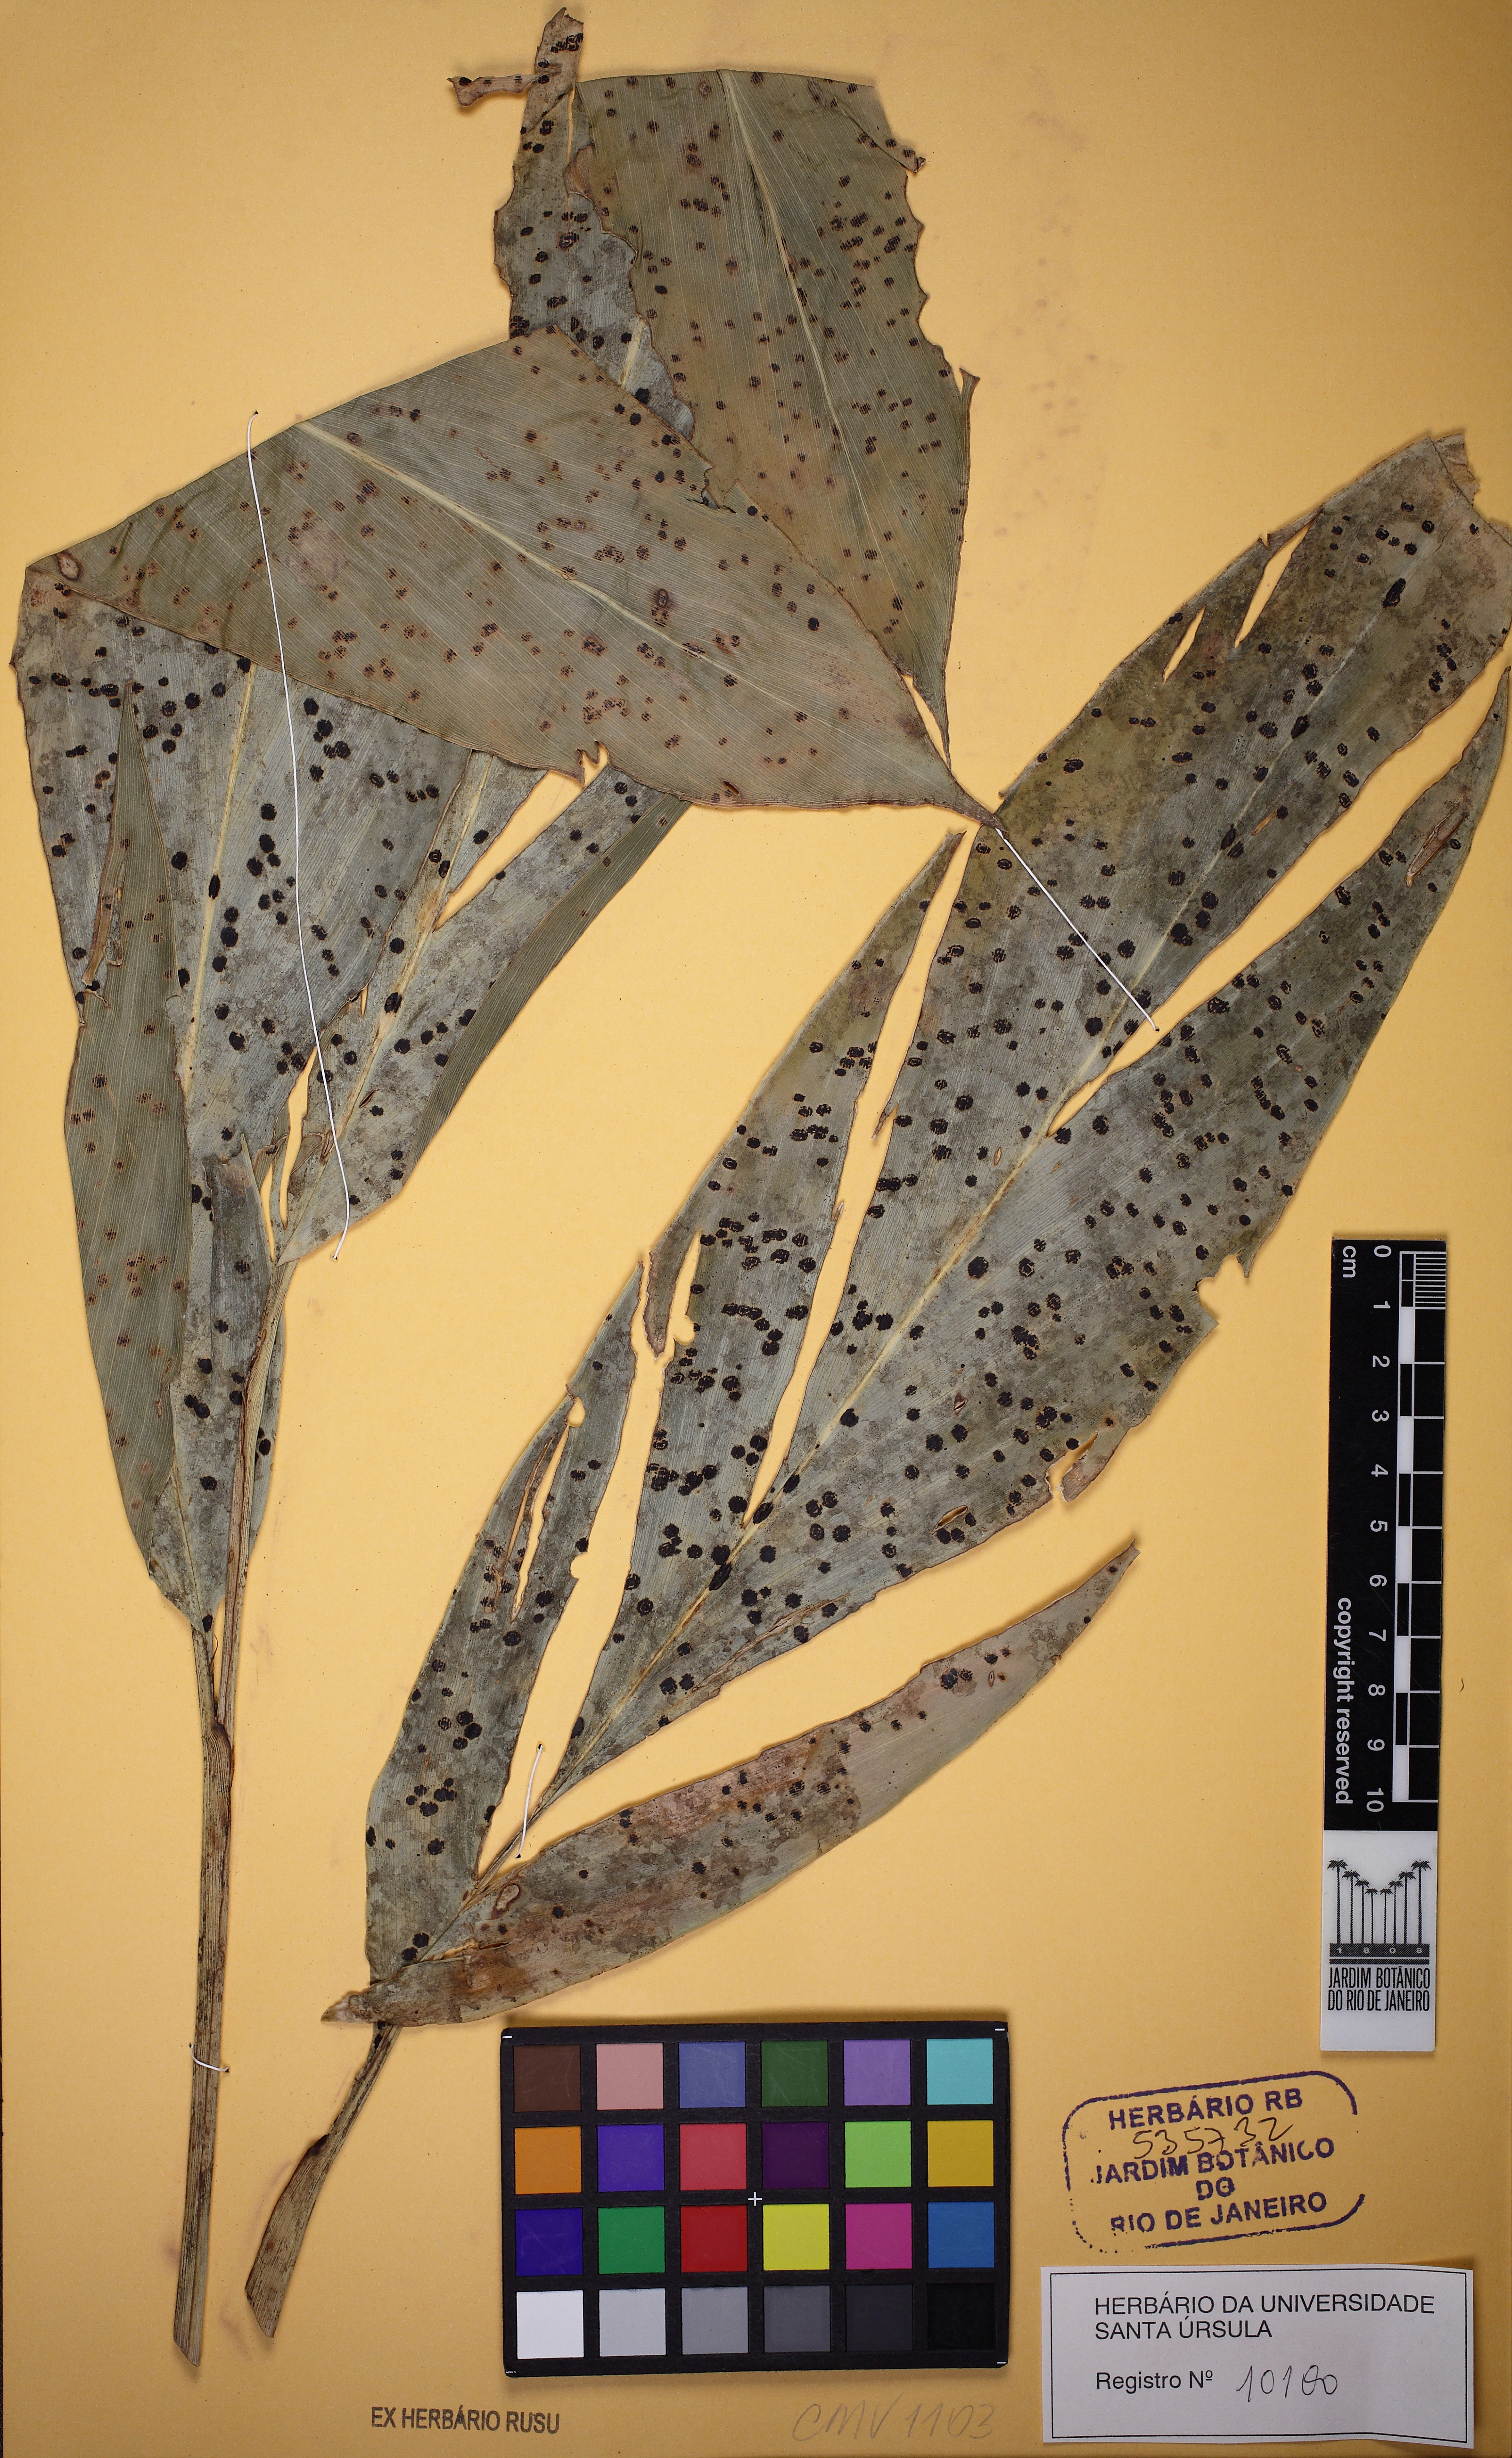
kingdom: Plantae
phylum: Tracheophyta
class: Liliopsida
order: Zingiberales
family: Zingiberaceae
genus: Renealmia
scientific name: Renealmia chrysotricha
